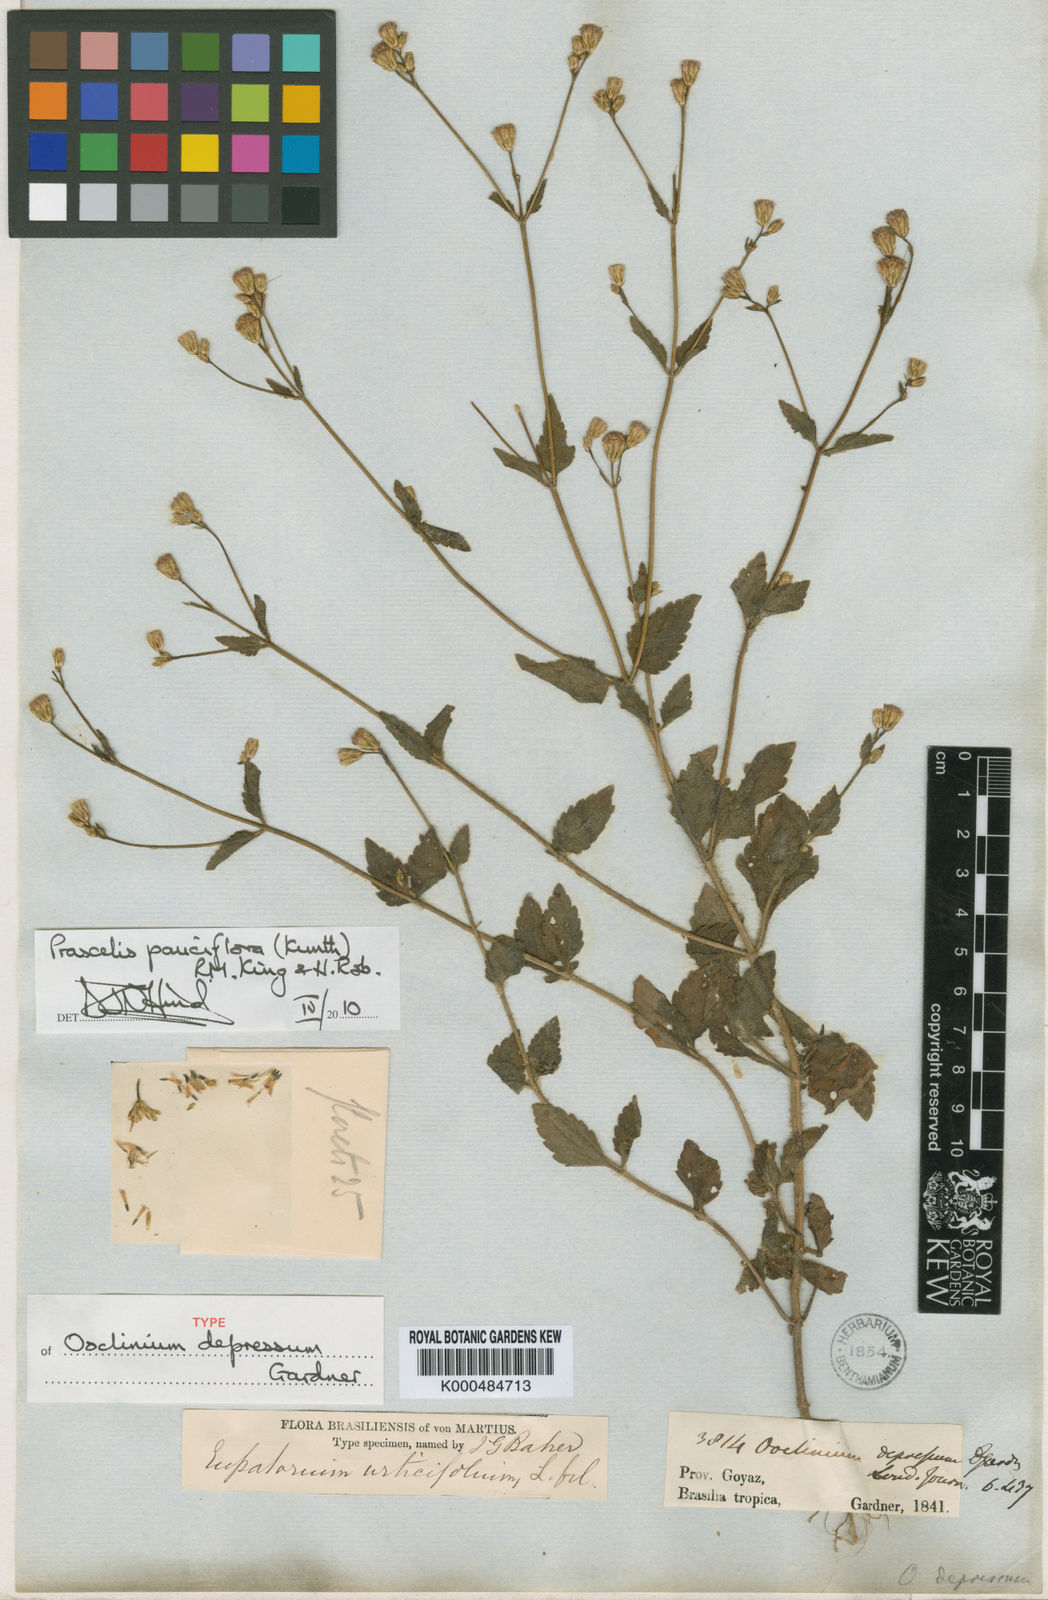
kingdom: Plantae
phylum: Tracheophyta
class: Magnoliopsida
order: Asterales
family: Asteraceae
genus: Praxelis
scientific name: Praxelis diffusa
